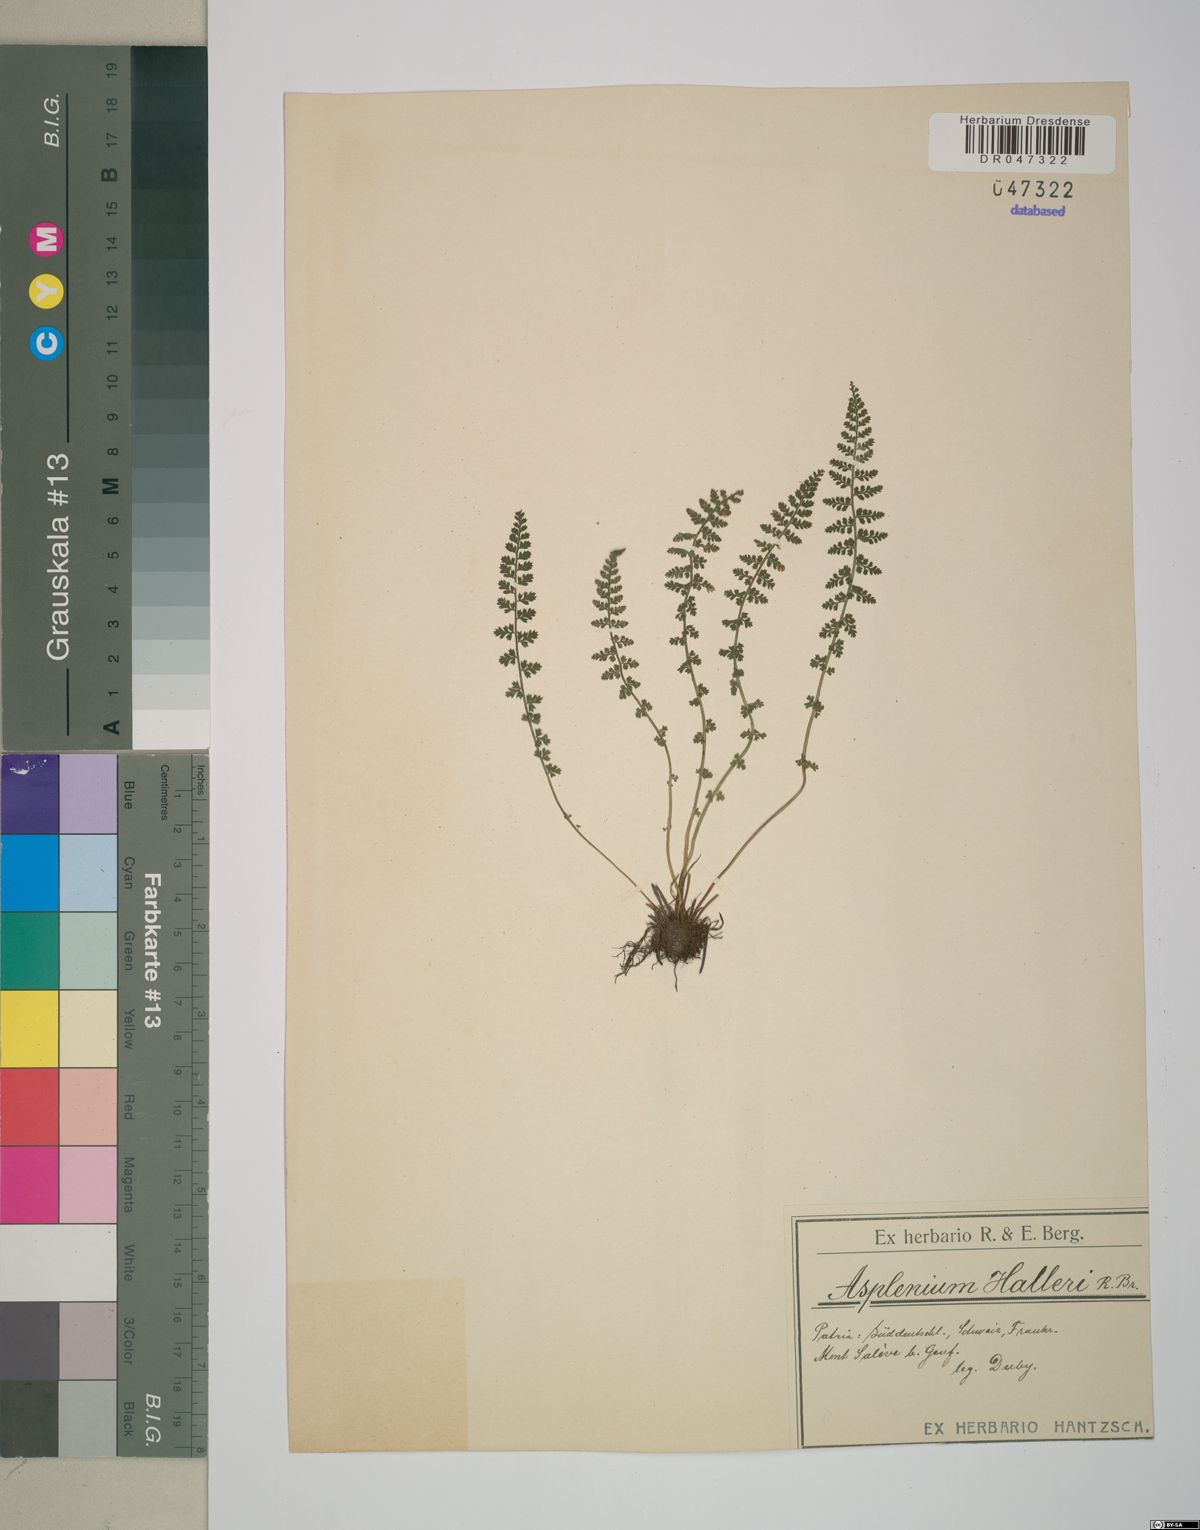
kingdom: Plantae
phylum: Tracheophyta
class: Polypodiopsida
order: Polypodiales
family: Aspleniaceae
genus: Asplenium
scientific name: Asplenium fontanum
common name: Fountain spleenwort
